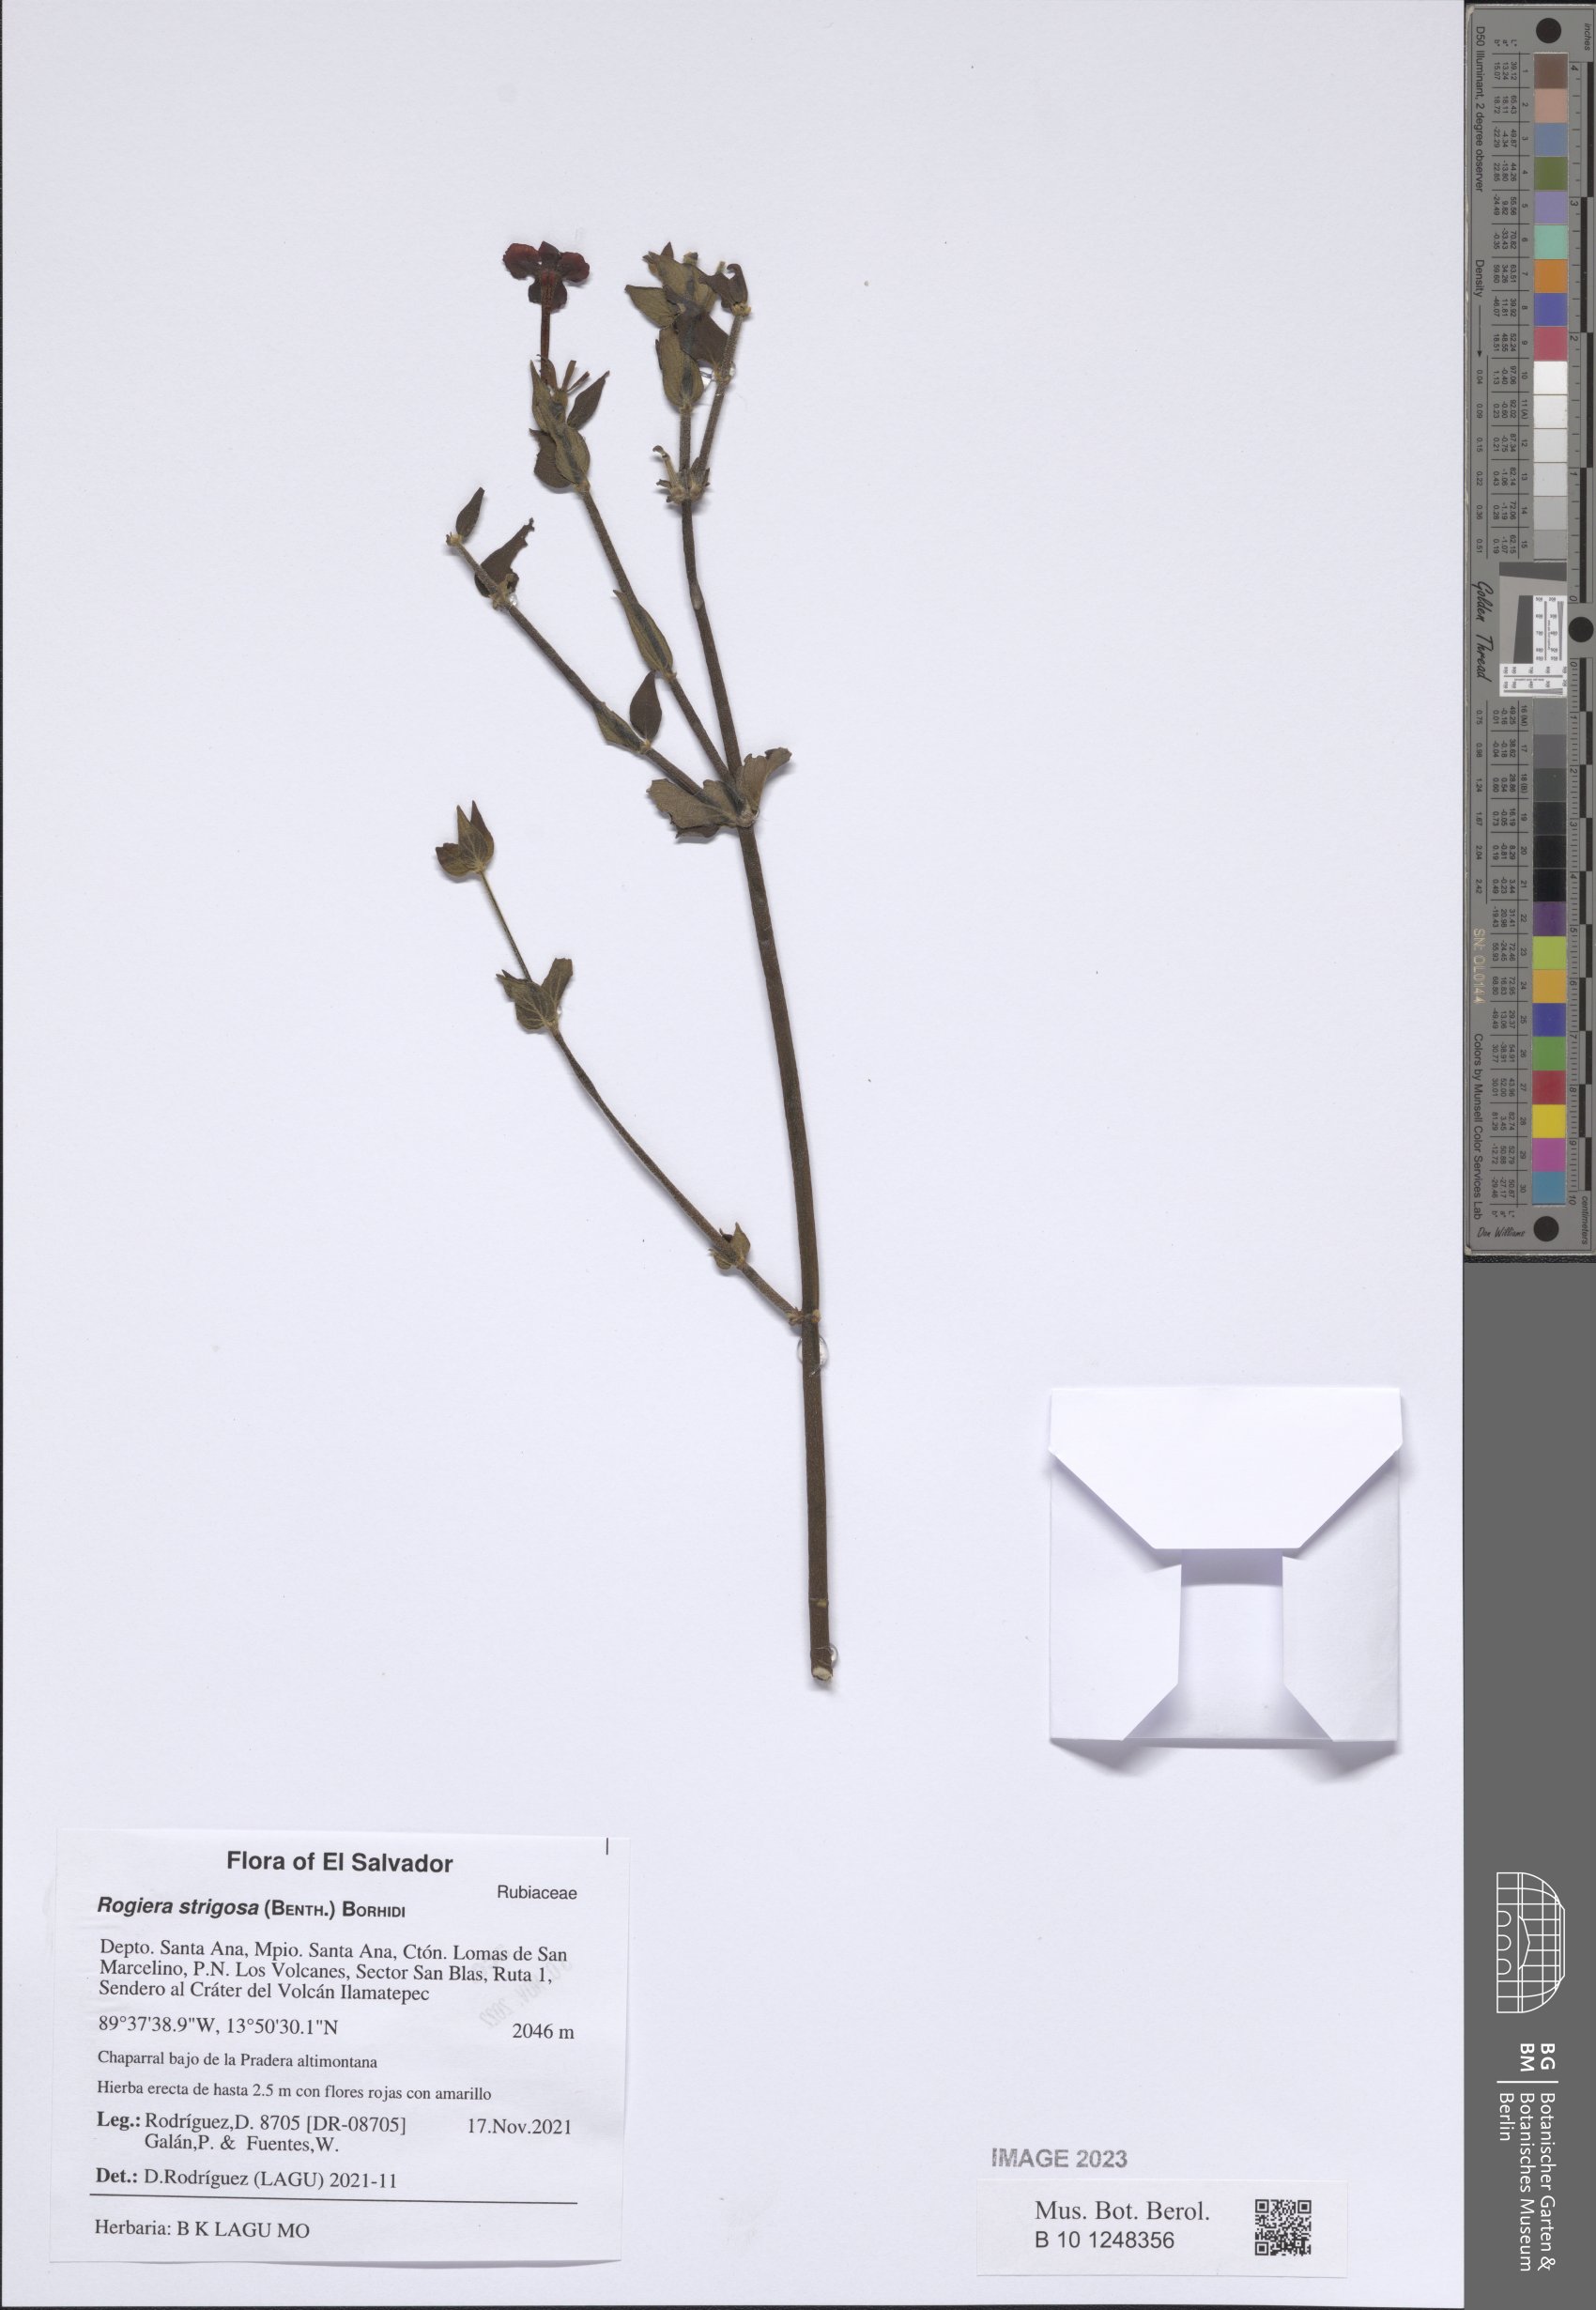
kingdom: Plantae
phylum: Tracheophyta
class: Magnoliopsida
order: Gentianales
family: Rubiaceae
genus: Rovaeanthus
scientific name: Rovaeanthus strigosus
